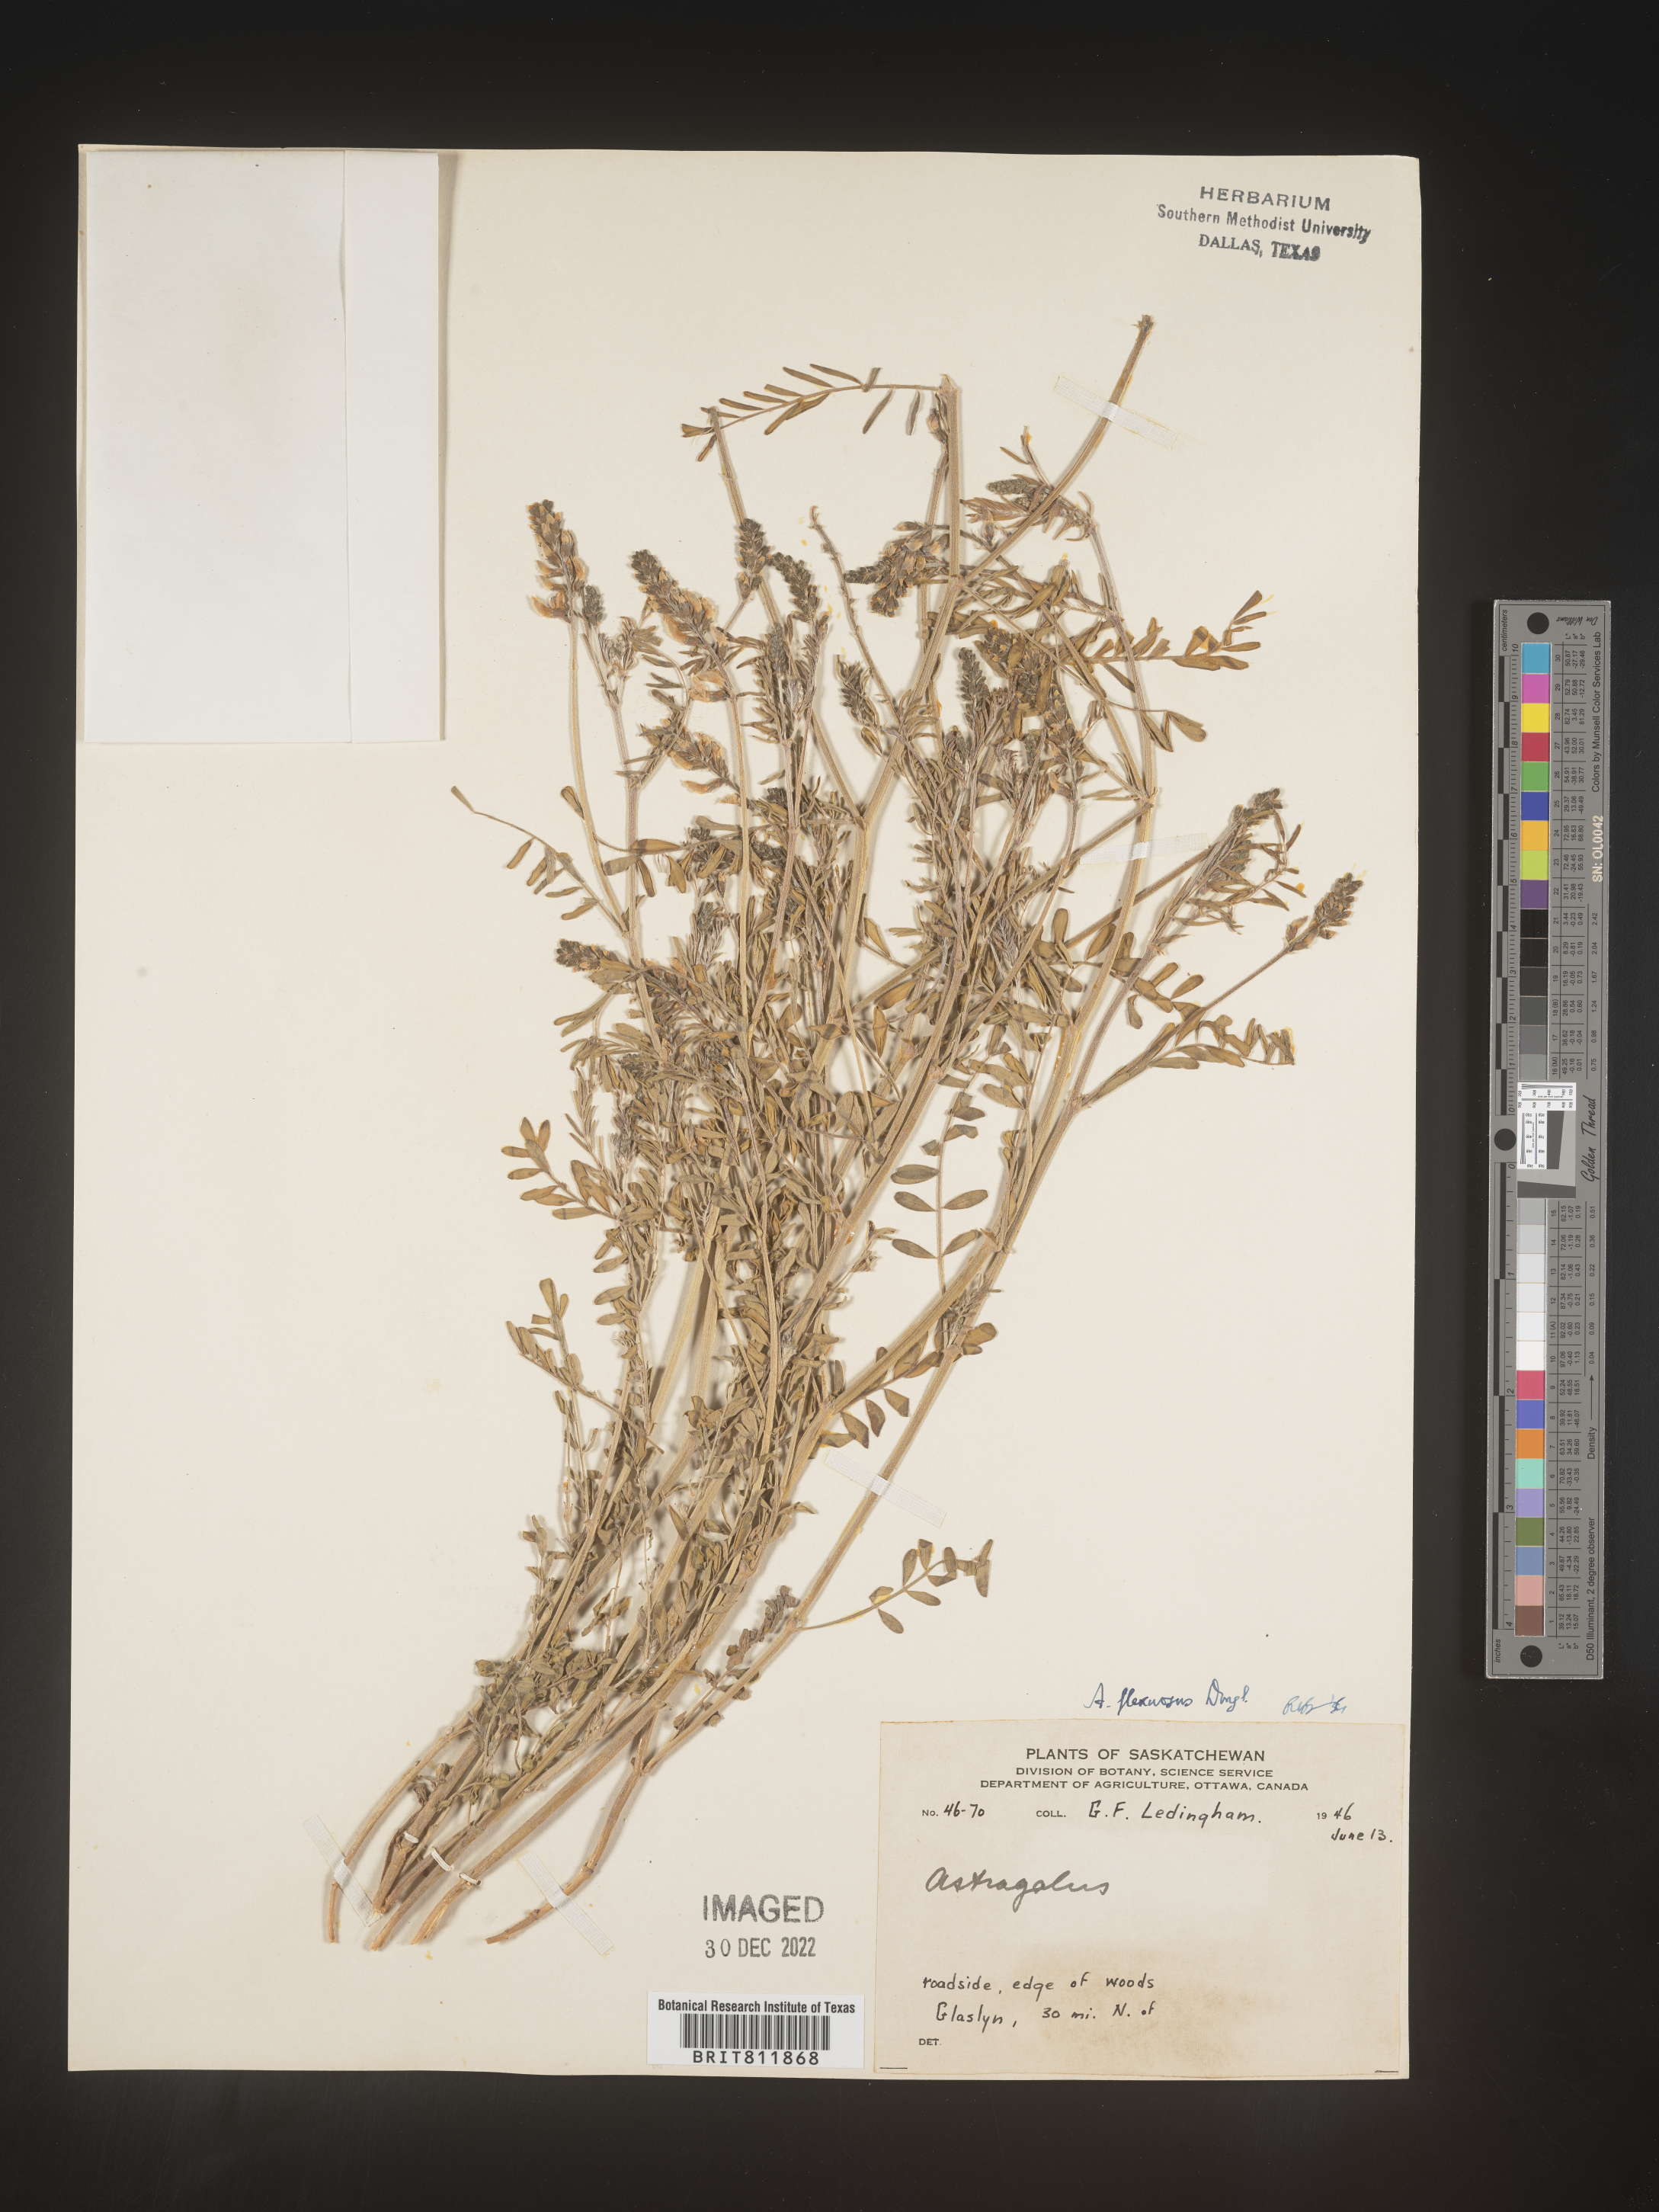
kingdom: Plantae
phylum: Tracheophyta
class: Magnoliopsida
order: Fabales
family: Fabaceae
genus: Astragalus
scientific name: Astragalus flexuosus
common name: Pliant milk-vetch
